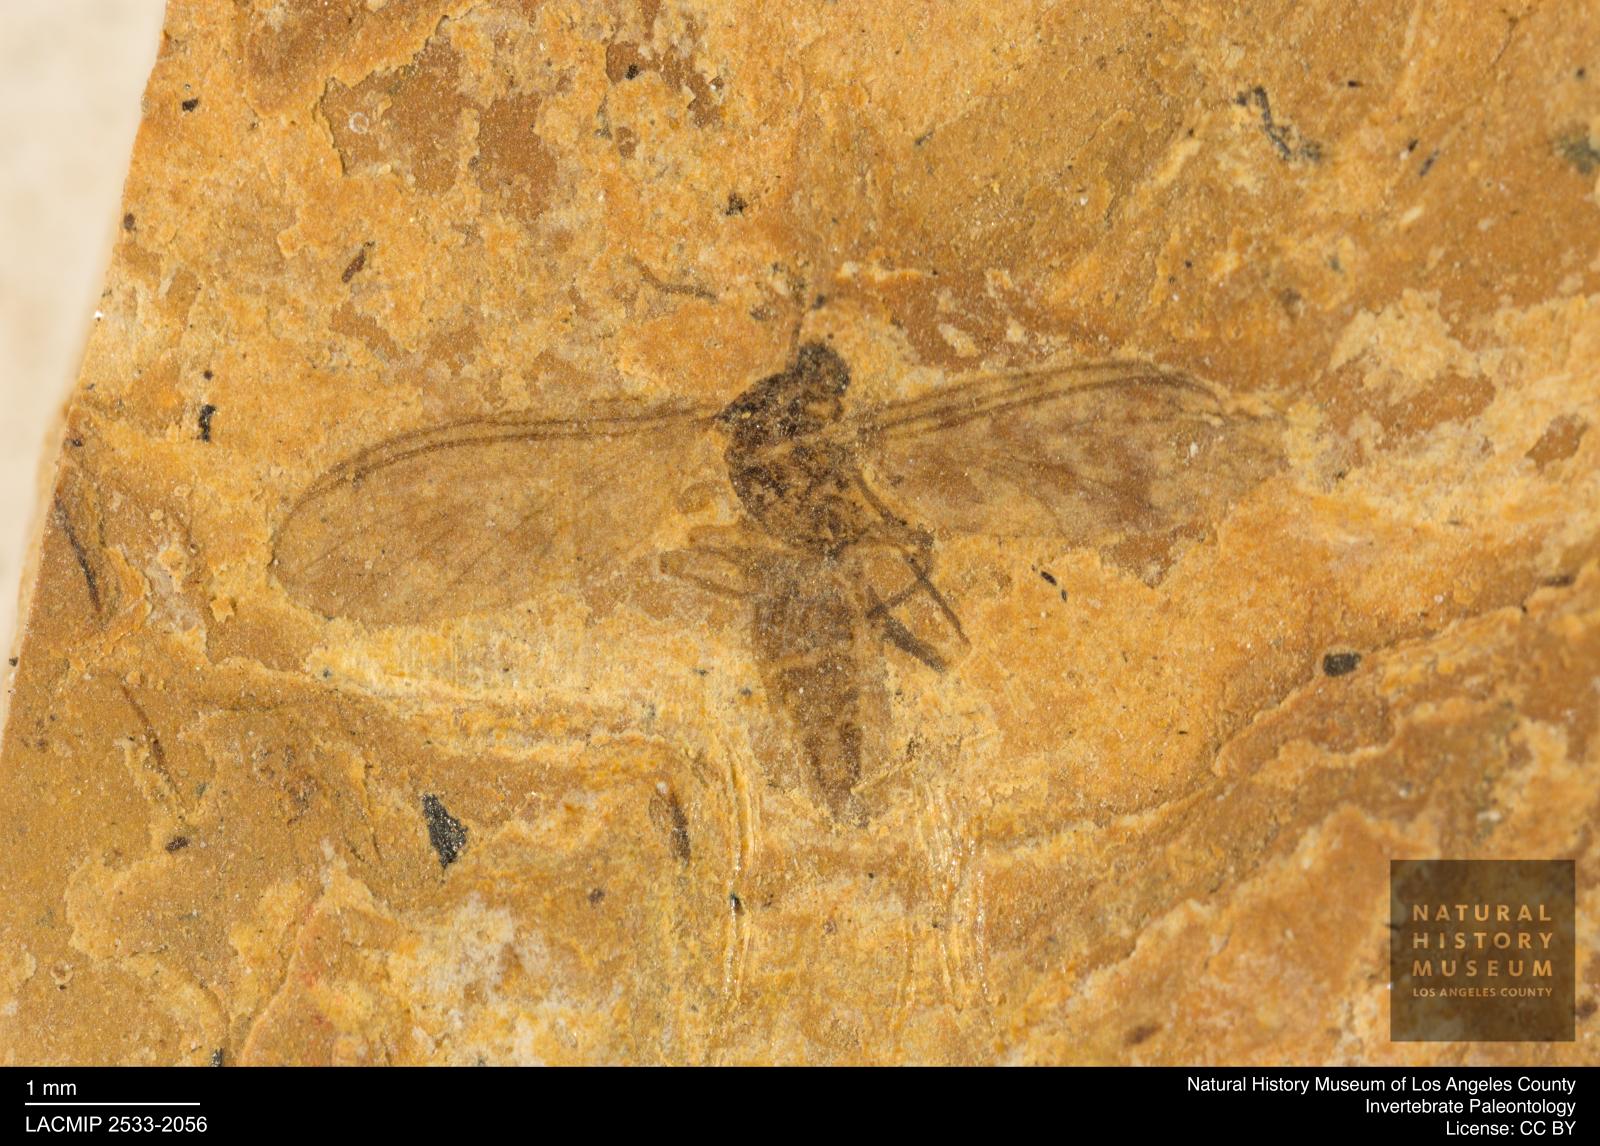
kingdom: Animalia
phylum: Arthropoda
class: Insecta
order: Diptera
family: Sciaridae
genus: Sciara
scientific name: Sciara antennaria
